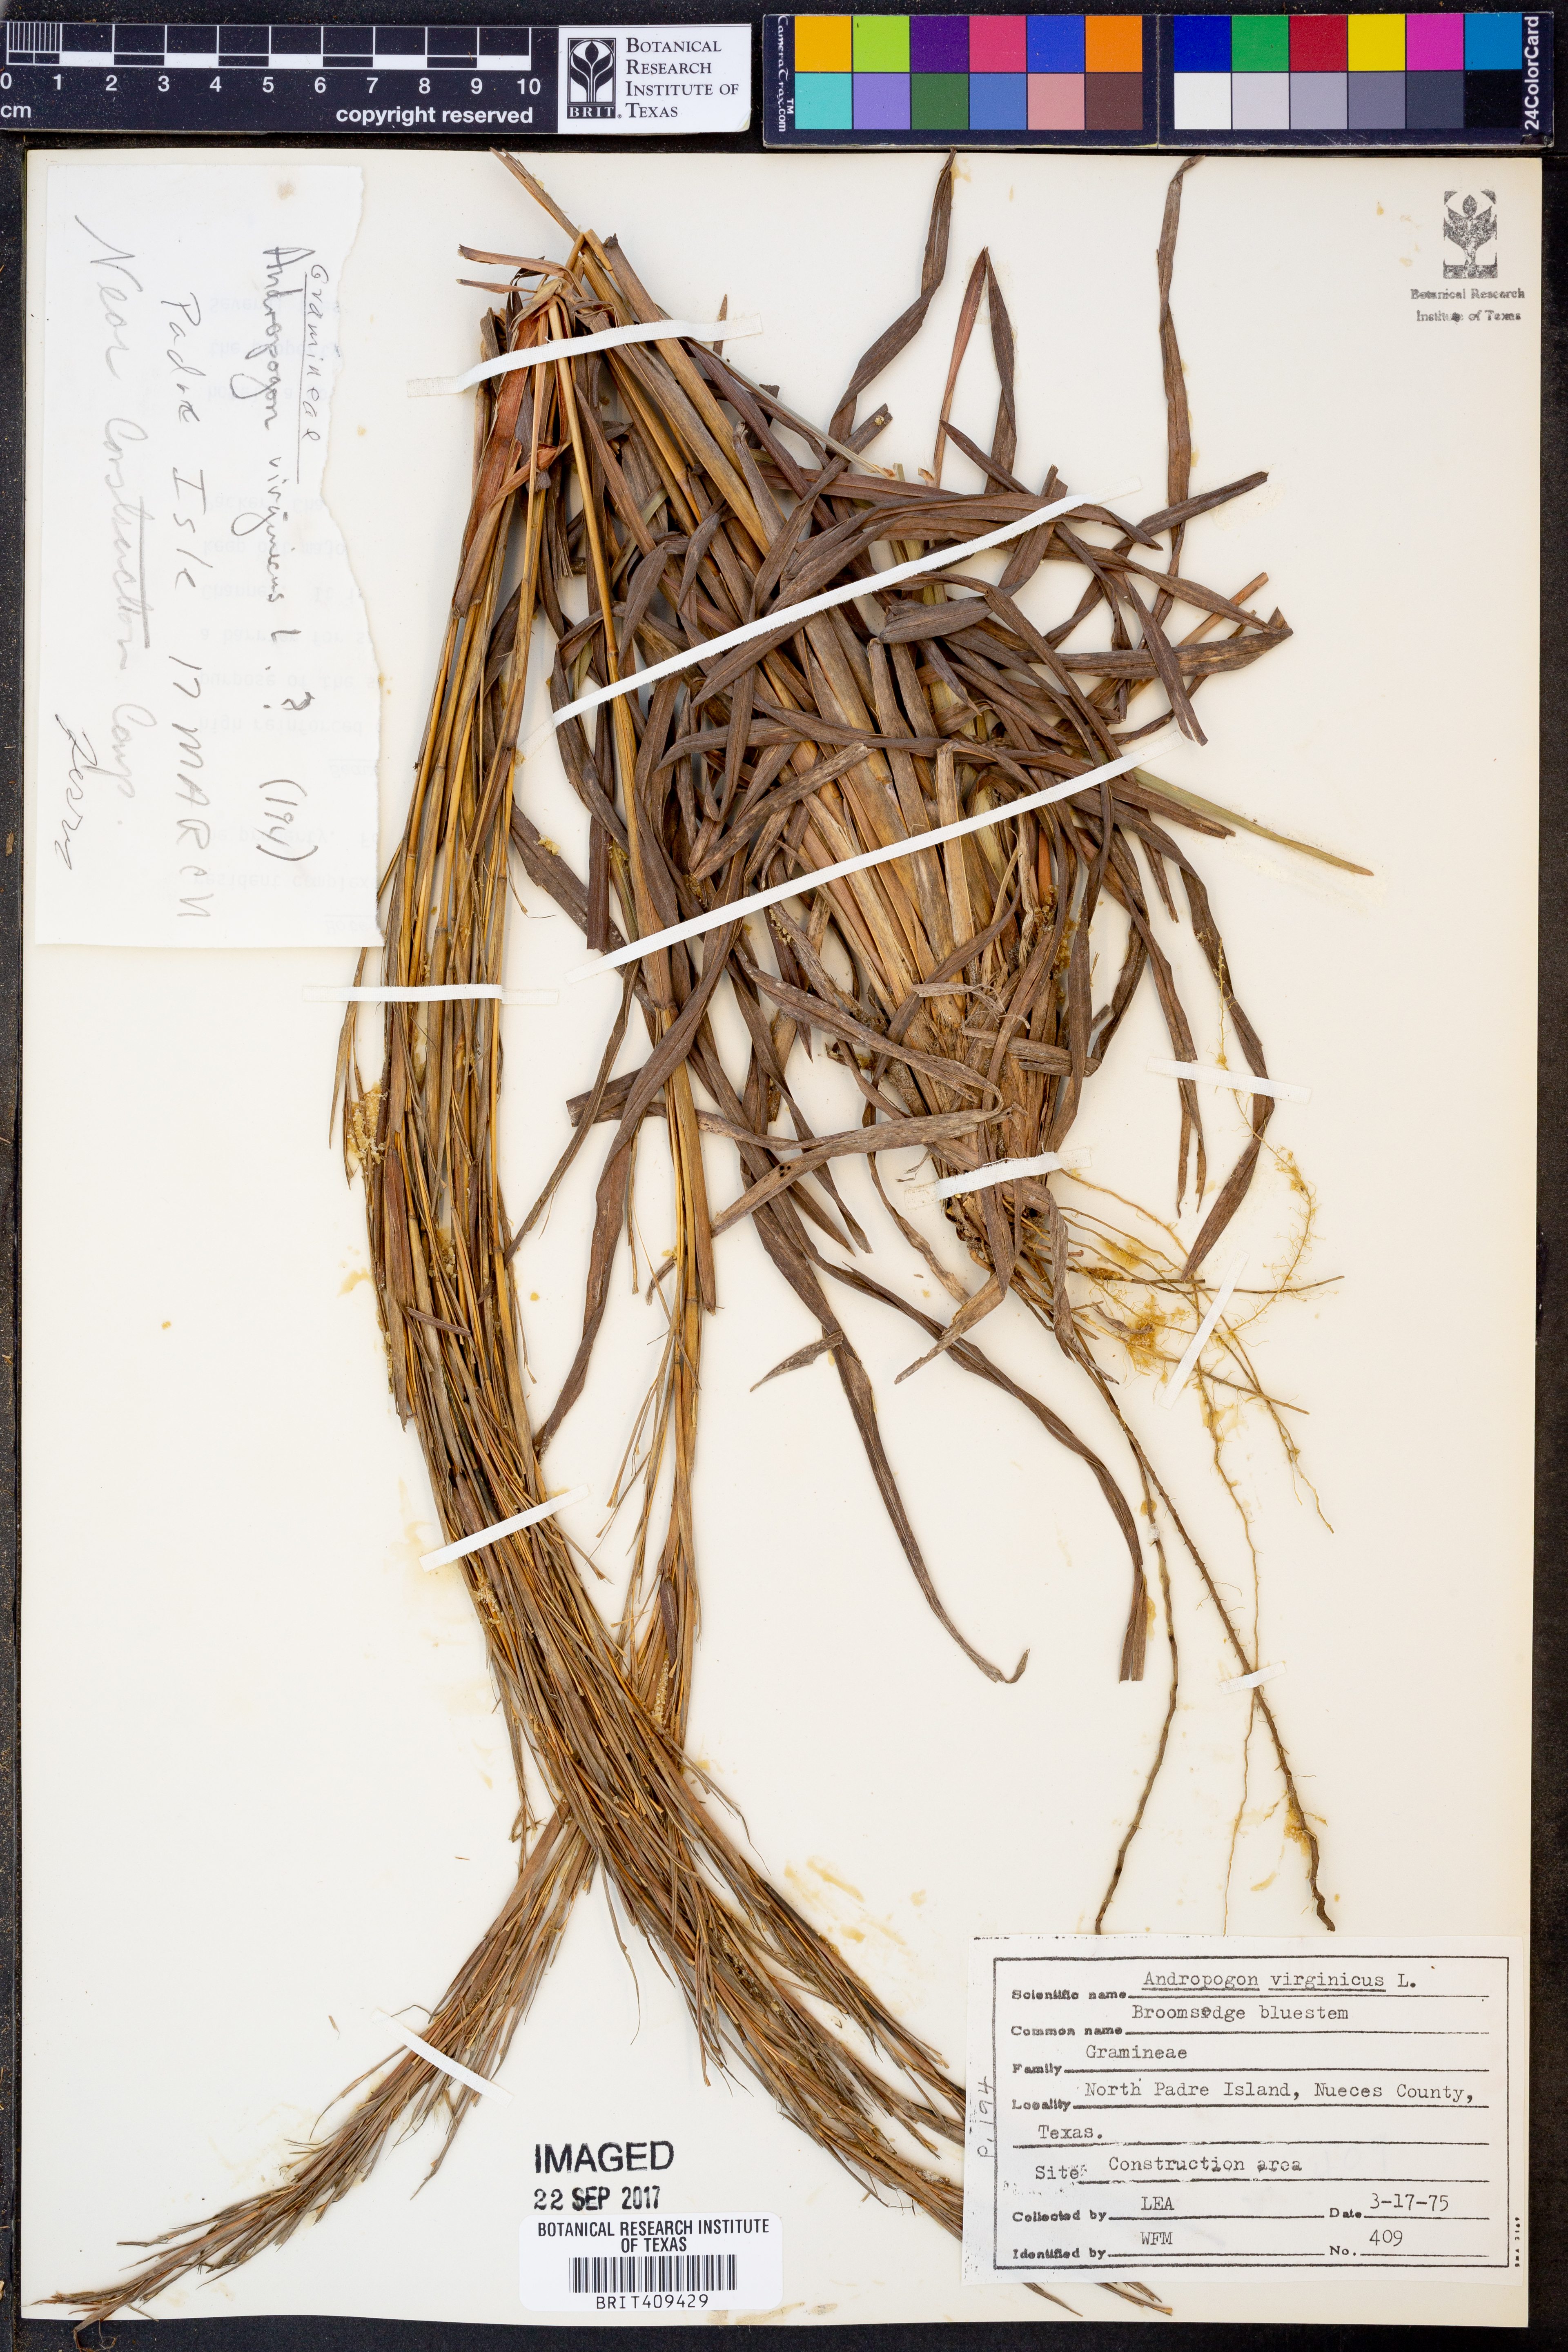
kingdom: Plantae
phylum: Tracheophyta
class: Liliopsida
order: Poales
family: Poaceae
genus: Andropogon
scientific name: Andropogon virginicus
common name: Broomsedge bluestem
